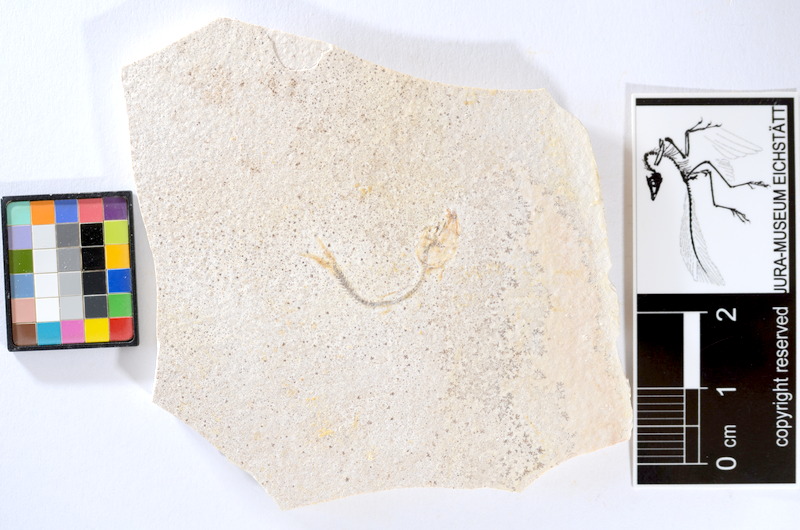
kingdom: Animalia
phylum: Chordata
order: Salmoniformes
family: Orthogonikleithridae
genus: Orthogonikleithrus
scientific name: Orthogonikleithrus hoelli
